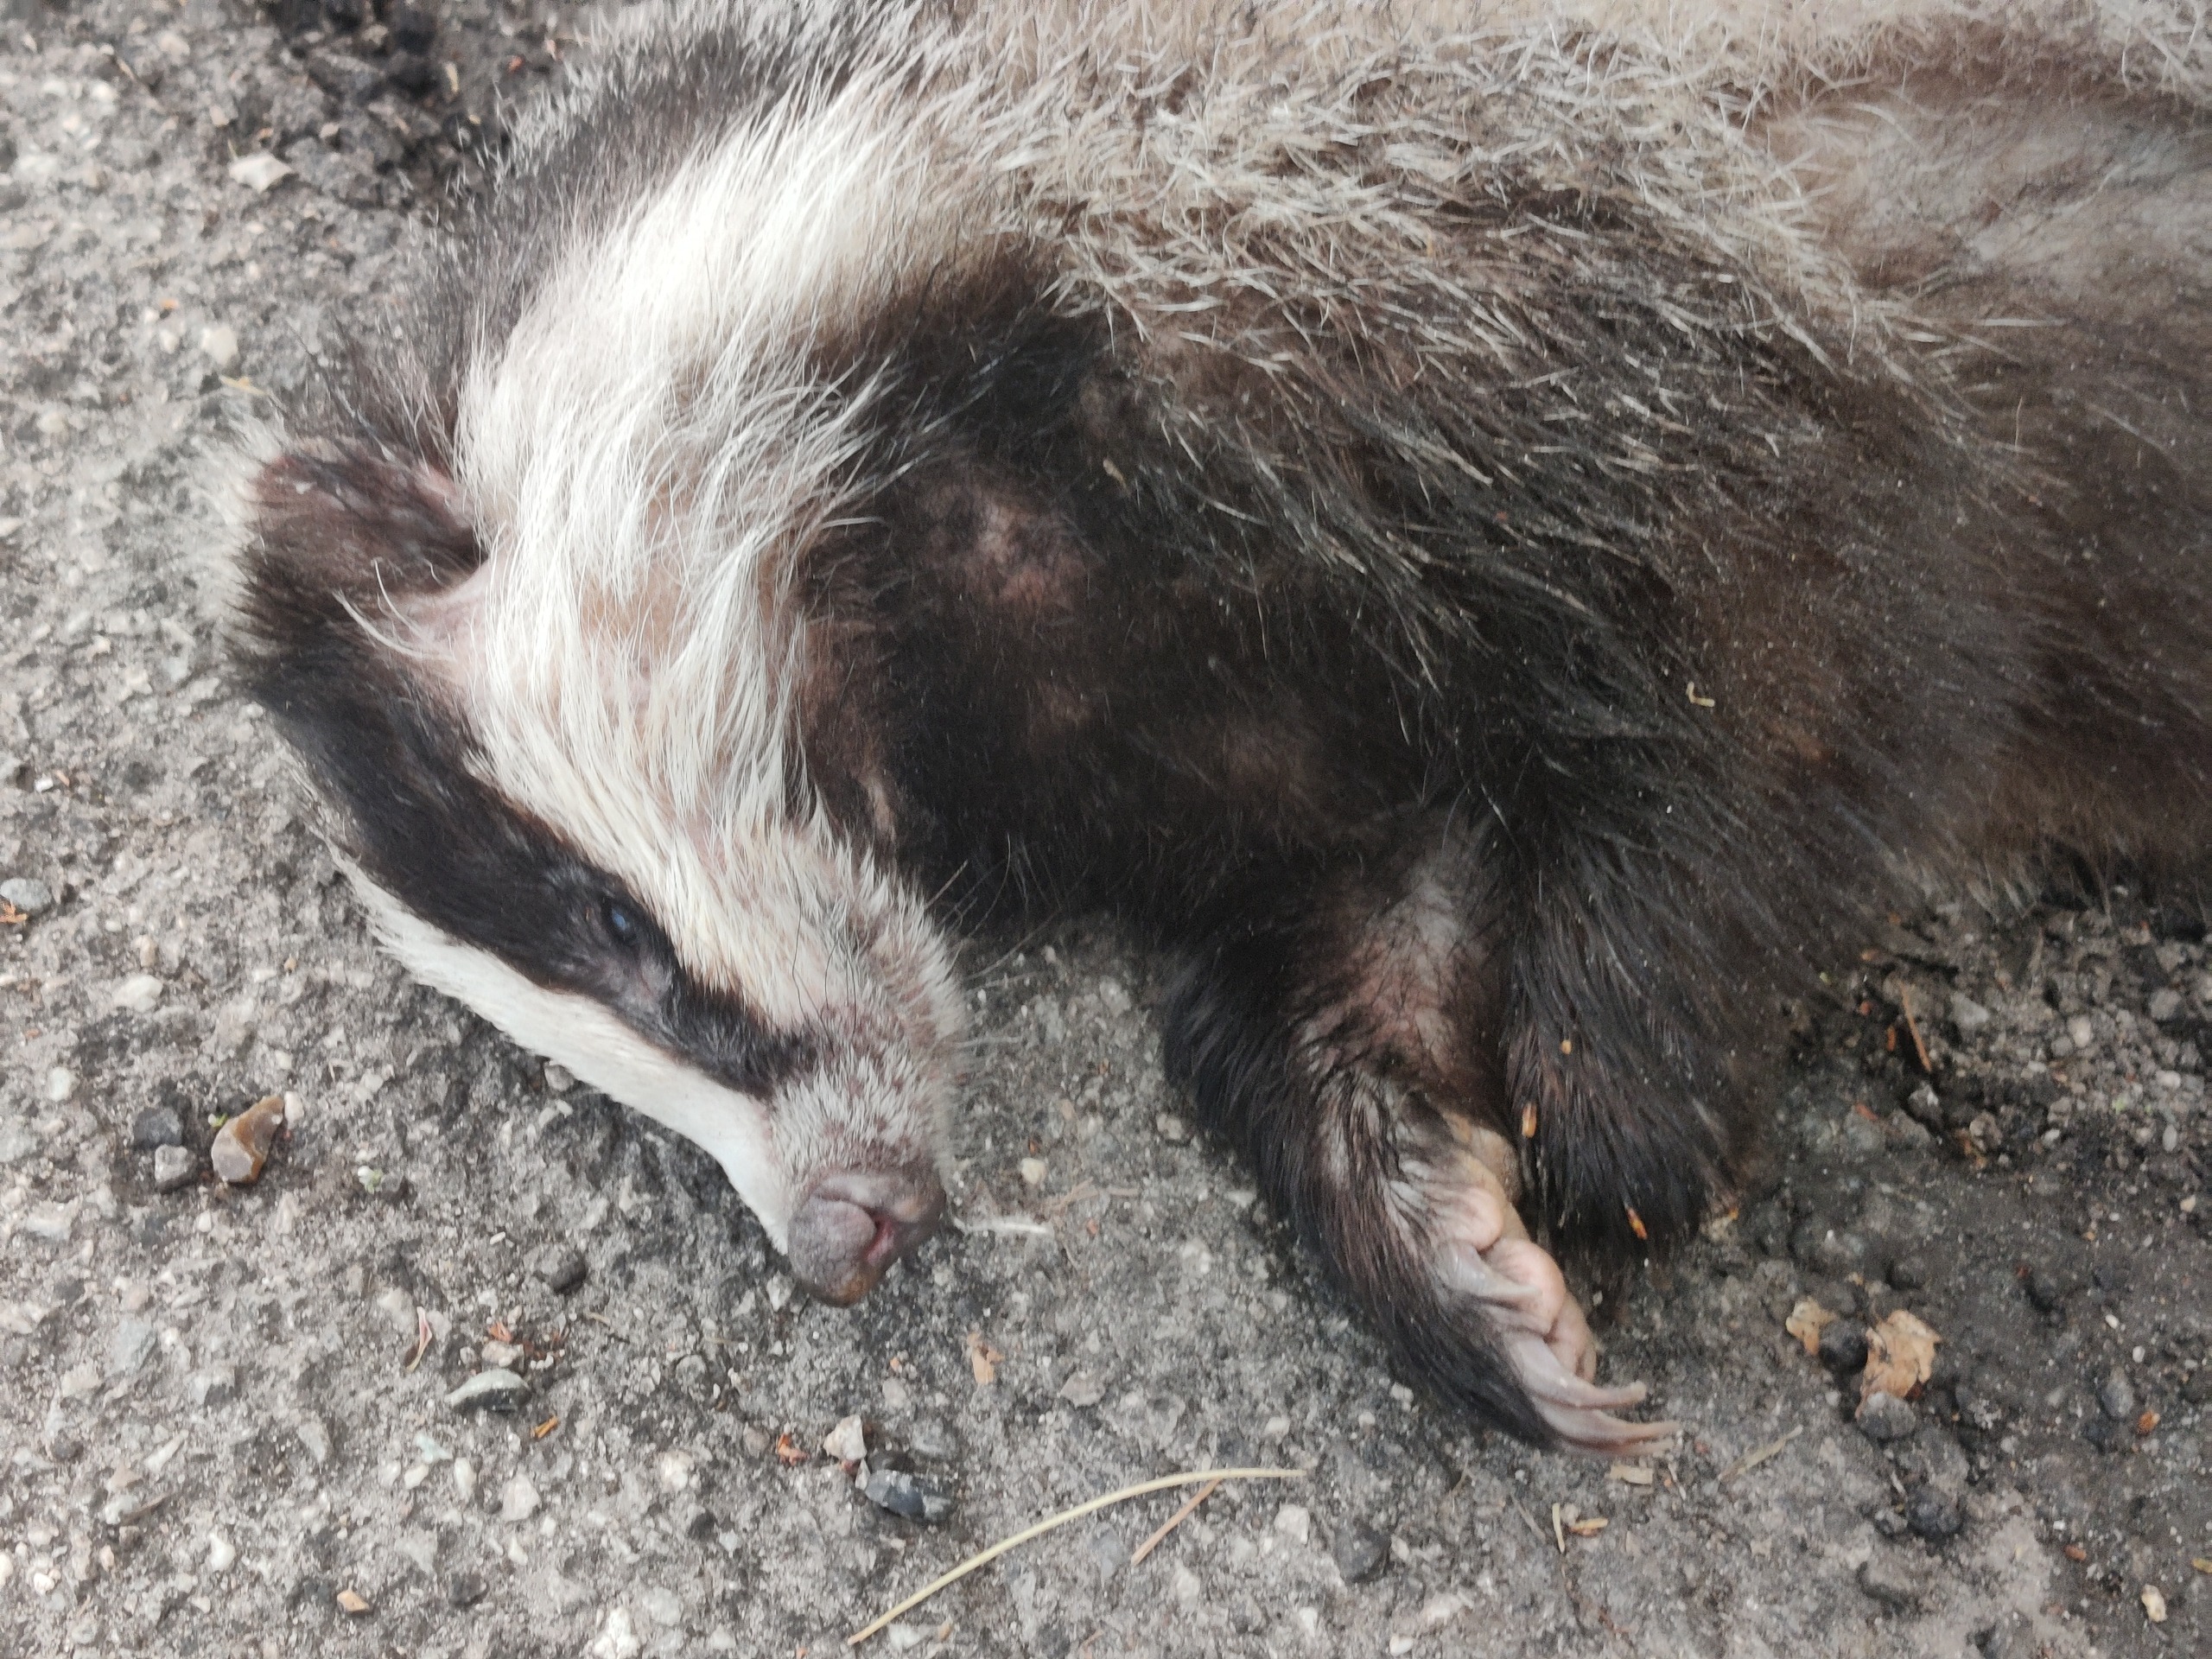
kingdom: Animalia
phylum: Chordata
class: Mammalia
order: Carnivora
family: Mustelidae
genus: Meles
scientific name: Meles meles
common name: Grævling
